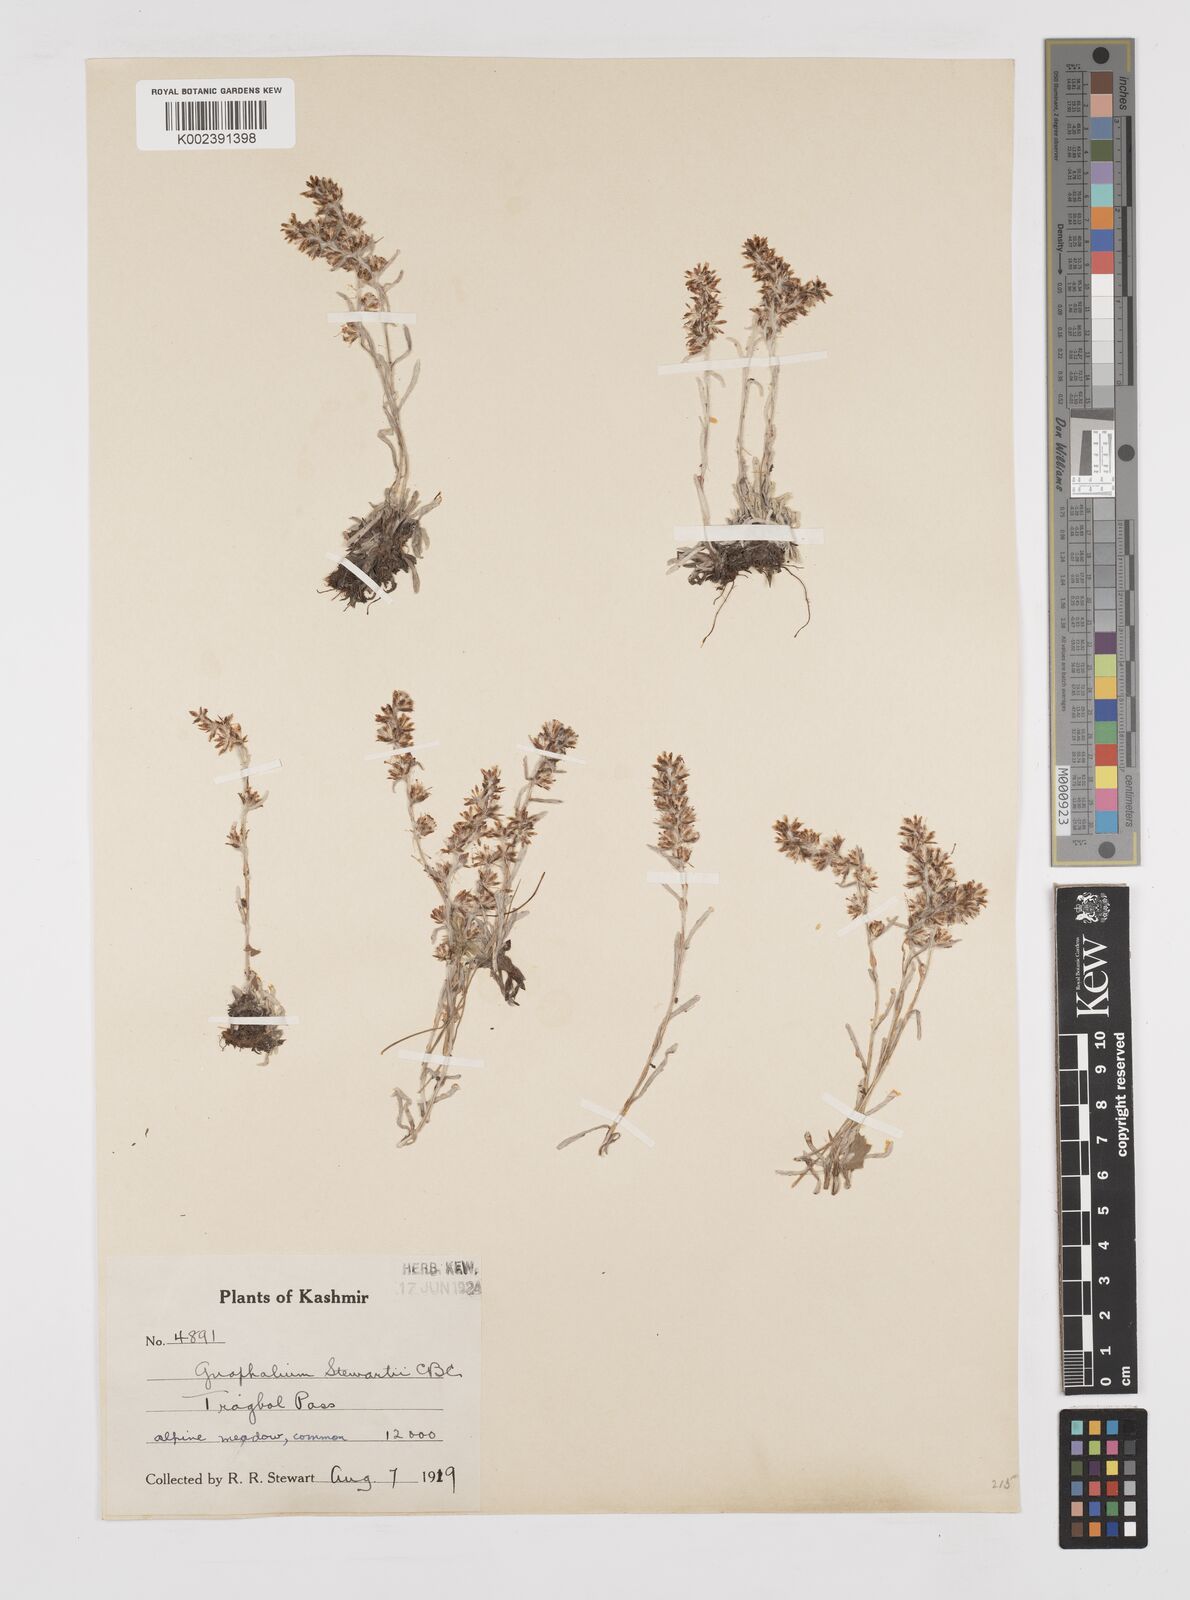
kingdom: Plantae
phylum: Tracheophyta
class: Magnoliopsida
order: Asterales
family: Asteraceae
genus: Gnaphalium
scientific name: Gnaphalium stewartii
